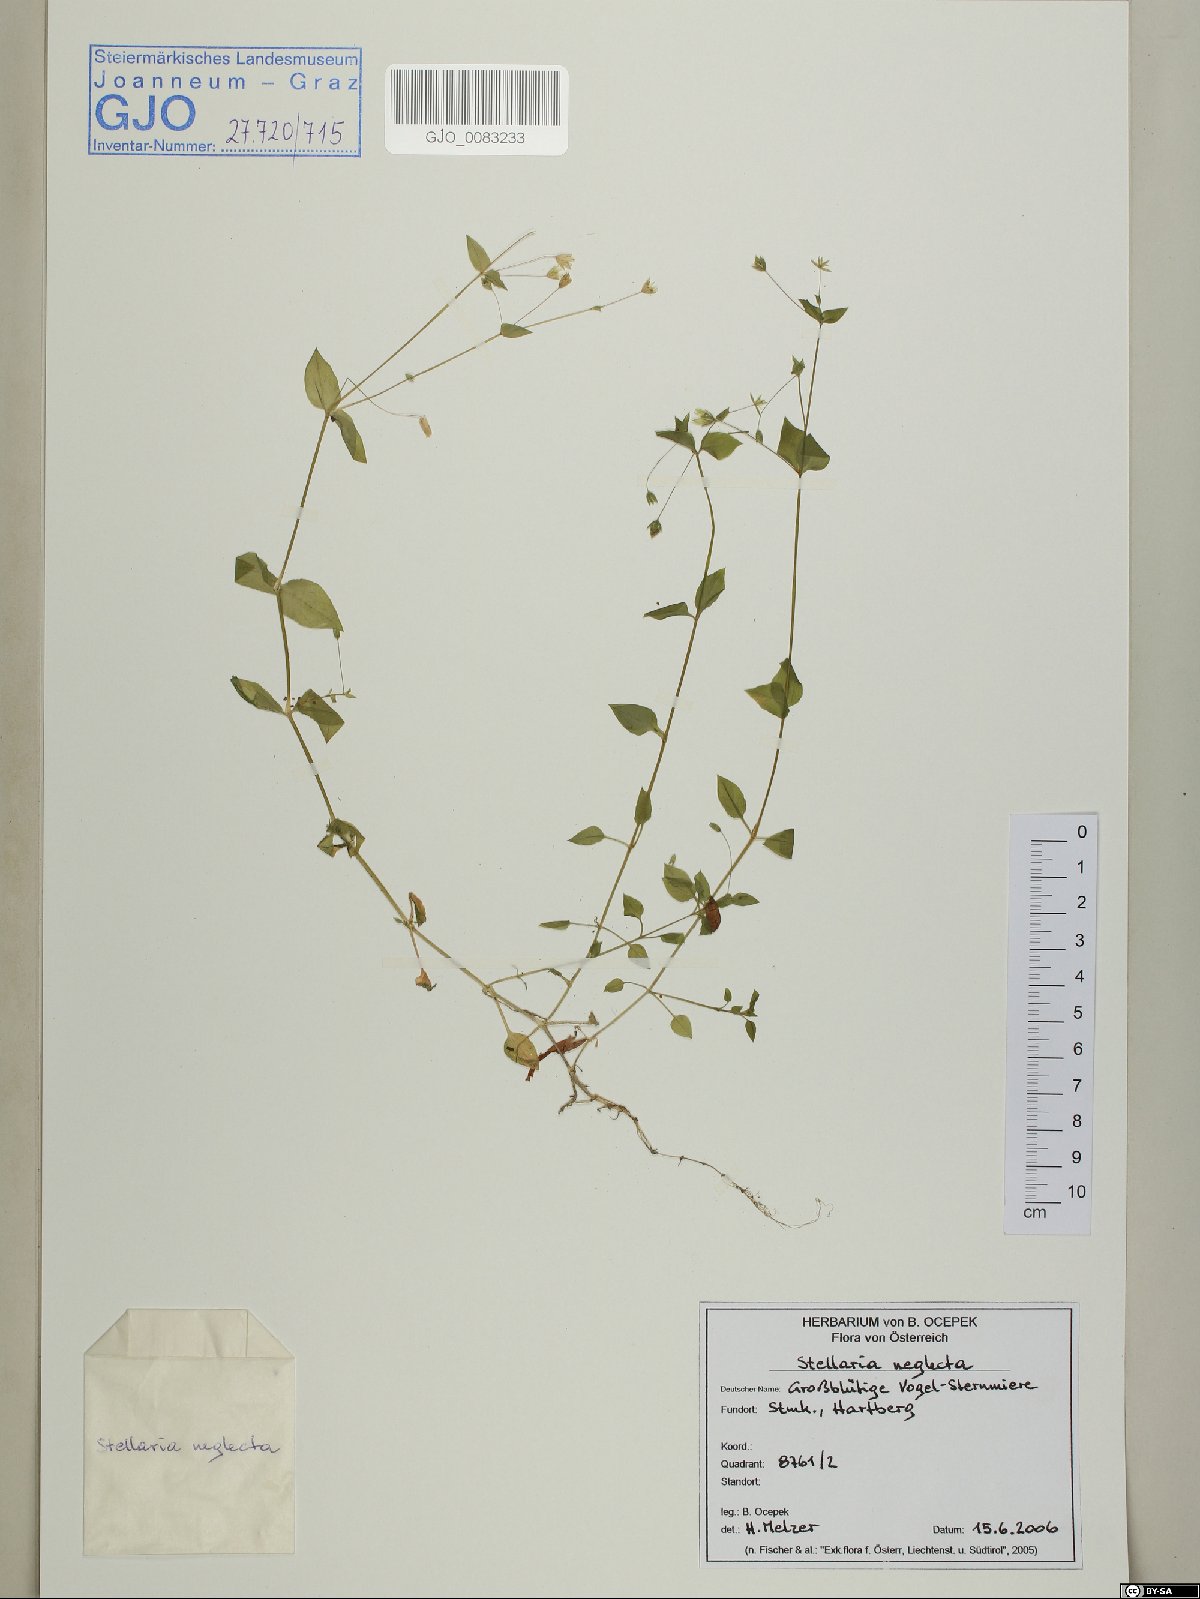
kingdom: Plantae
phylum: Tracheophyta
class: Magnoliopsida
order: Caryophyllales
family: Caryophyllaceae
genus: Stellaria
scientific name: Stellaria neglecta
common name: Greater chickweed
